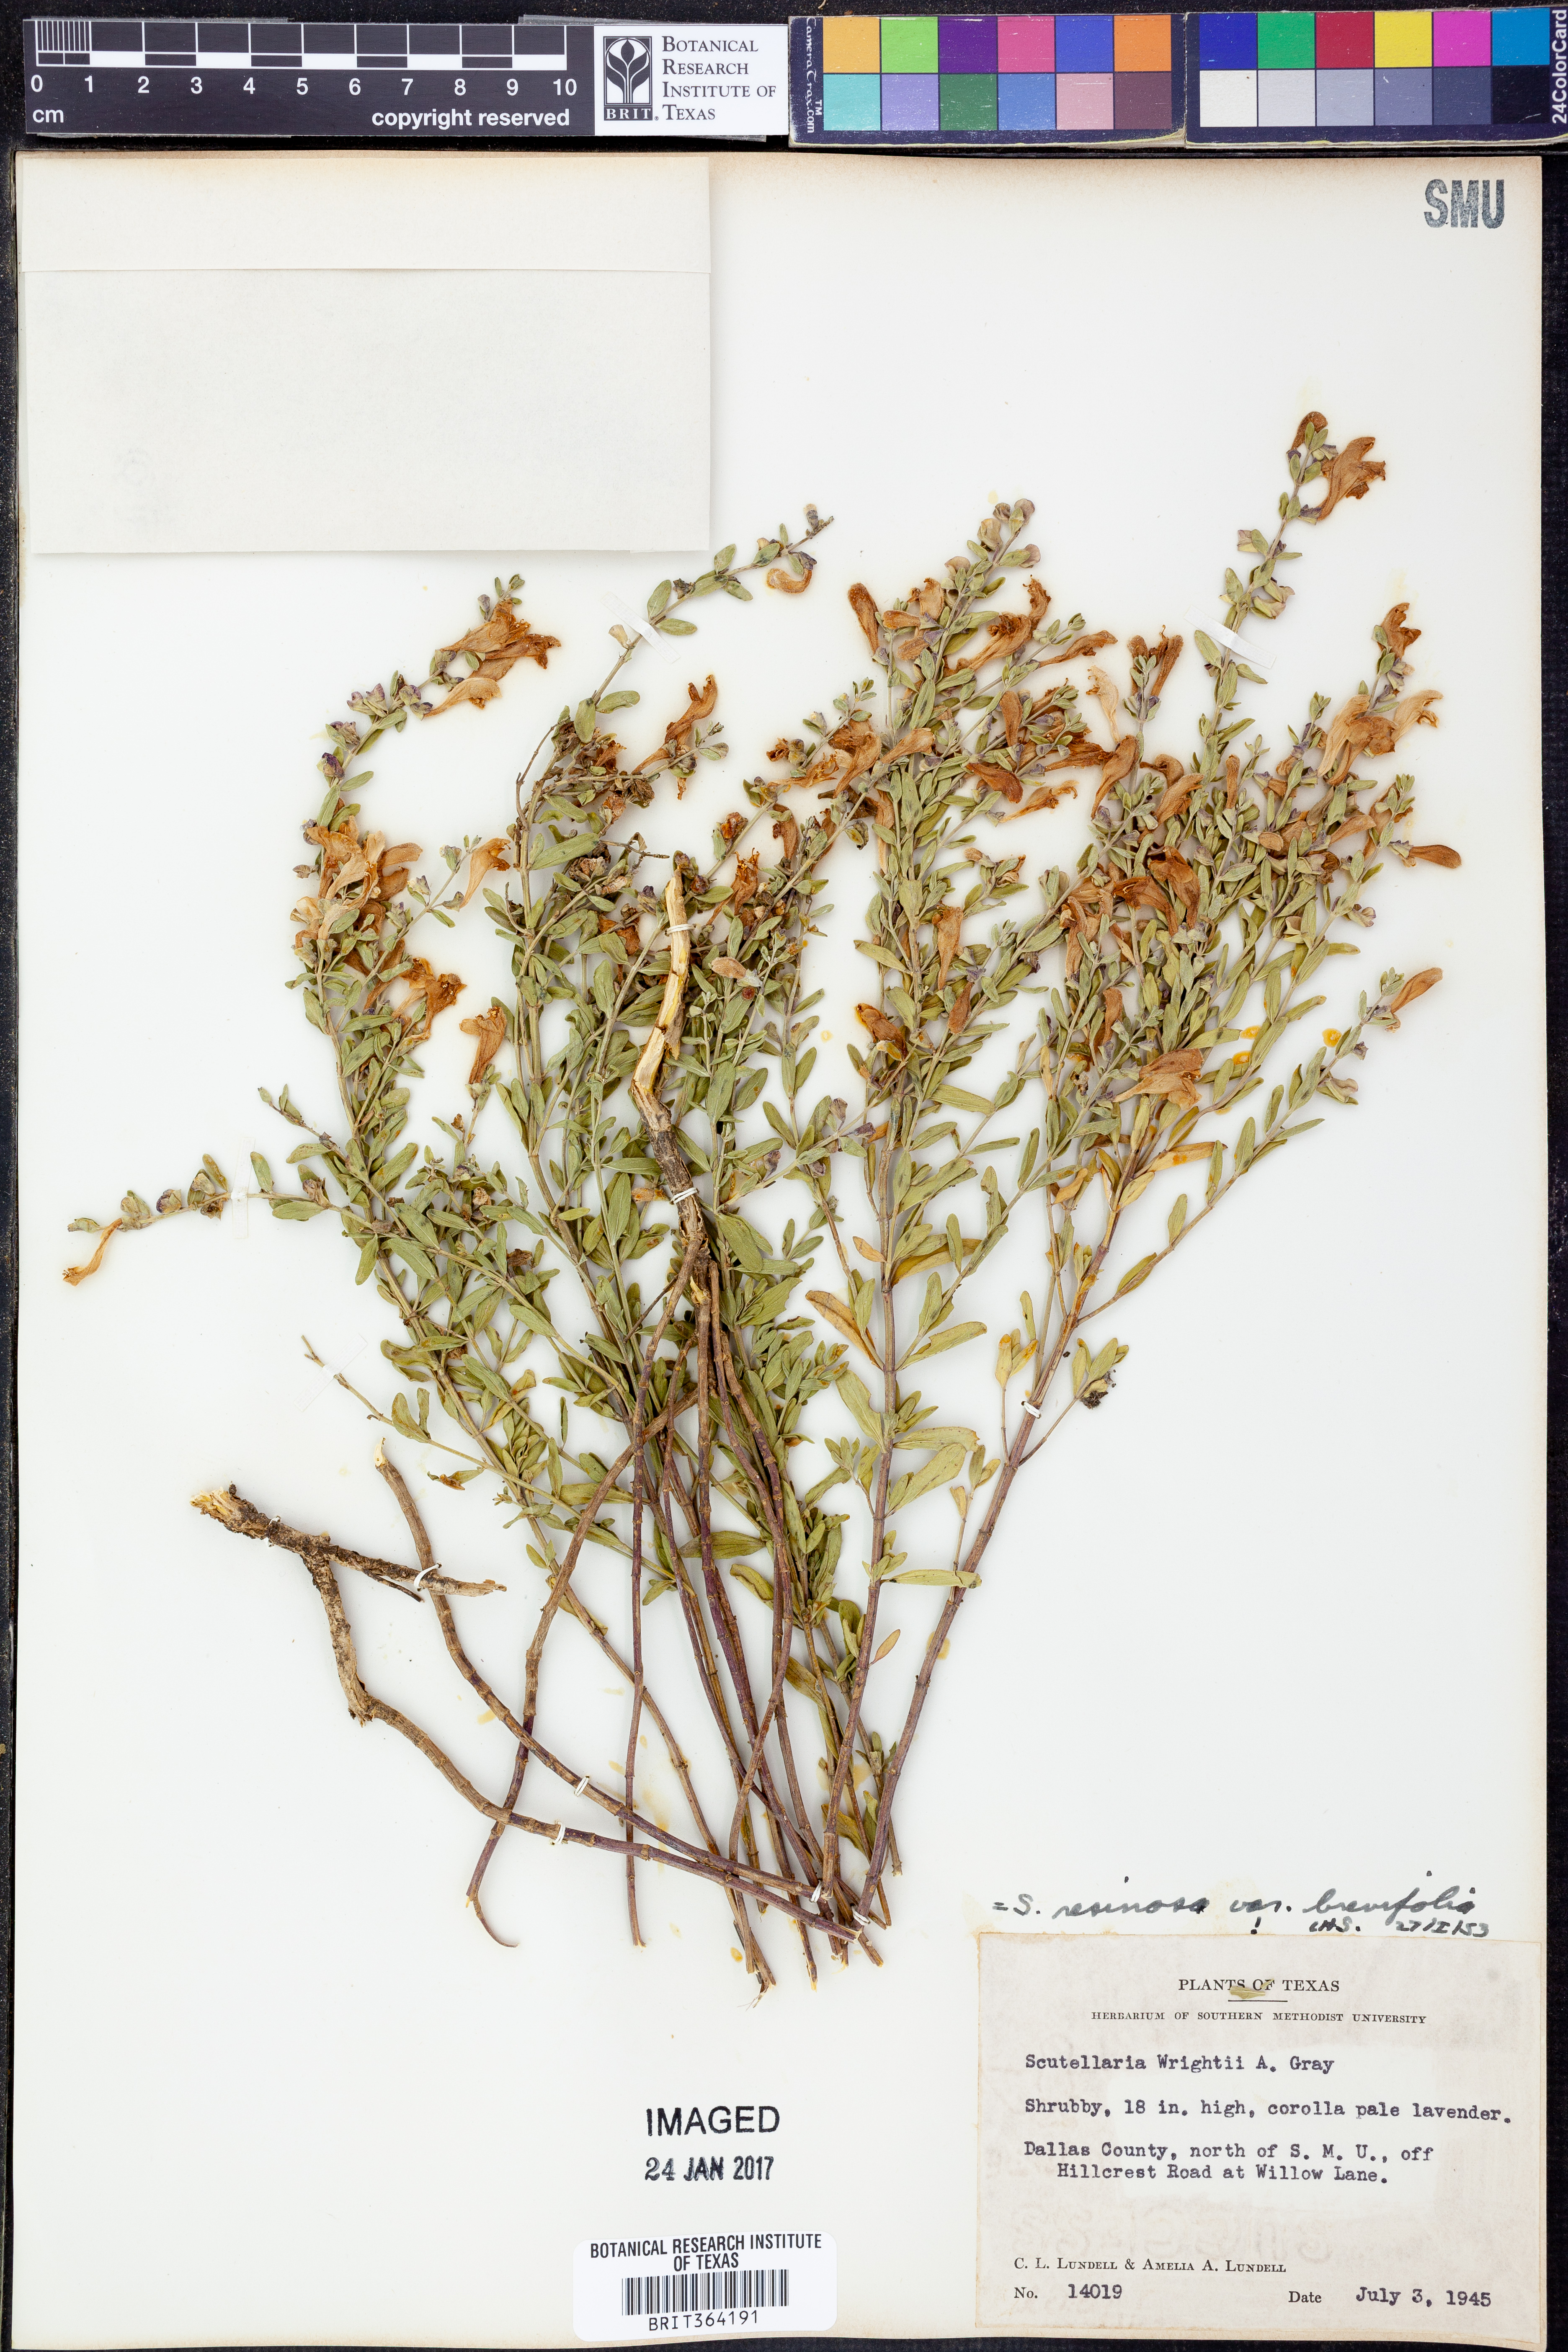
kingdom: Plantae
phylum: Tracheophyta
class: Magnoliopsida
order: Lamiales
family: Lamiaceae
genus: Scutellaria
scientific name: Scutellaria resinosa
